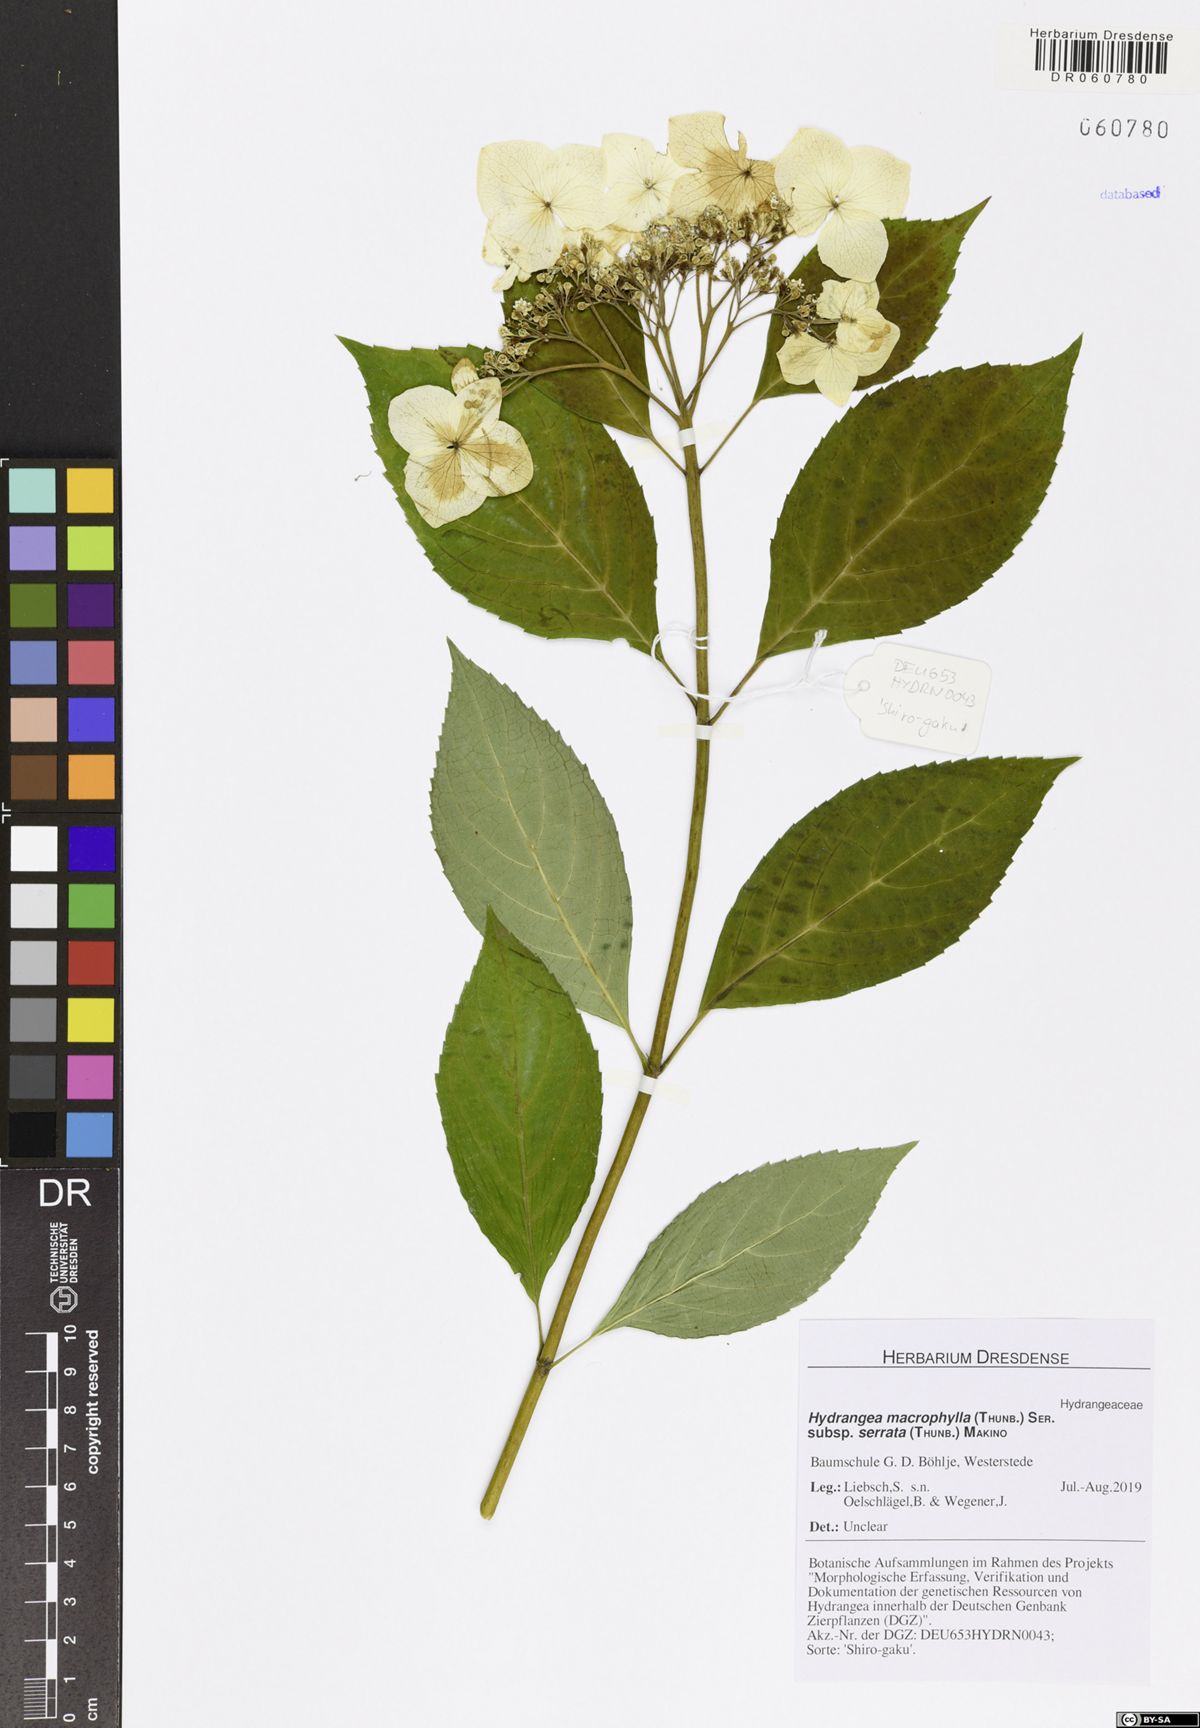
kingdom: Plantae
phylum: Tracheophyta
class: Magnoliopsida
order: Cornales
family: Hydrangeaceae
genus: Hydrangea
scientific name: Hydrangea serrata
